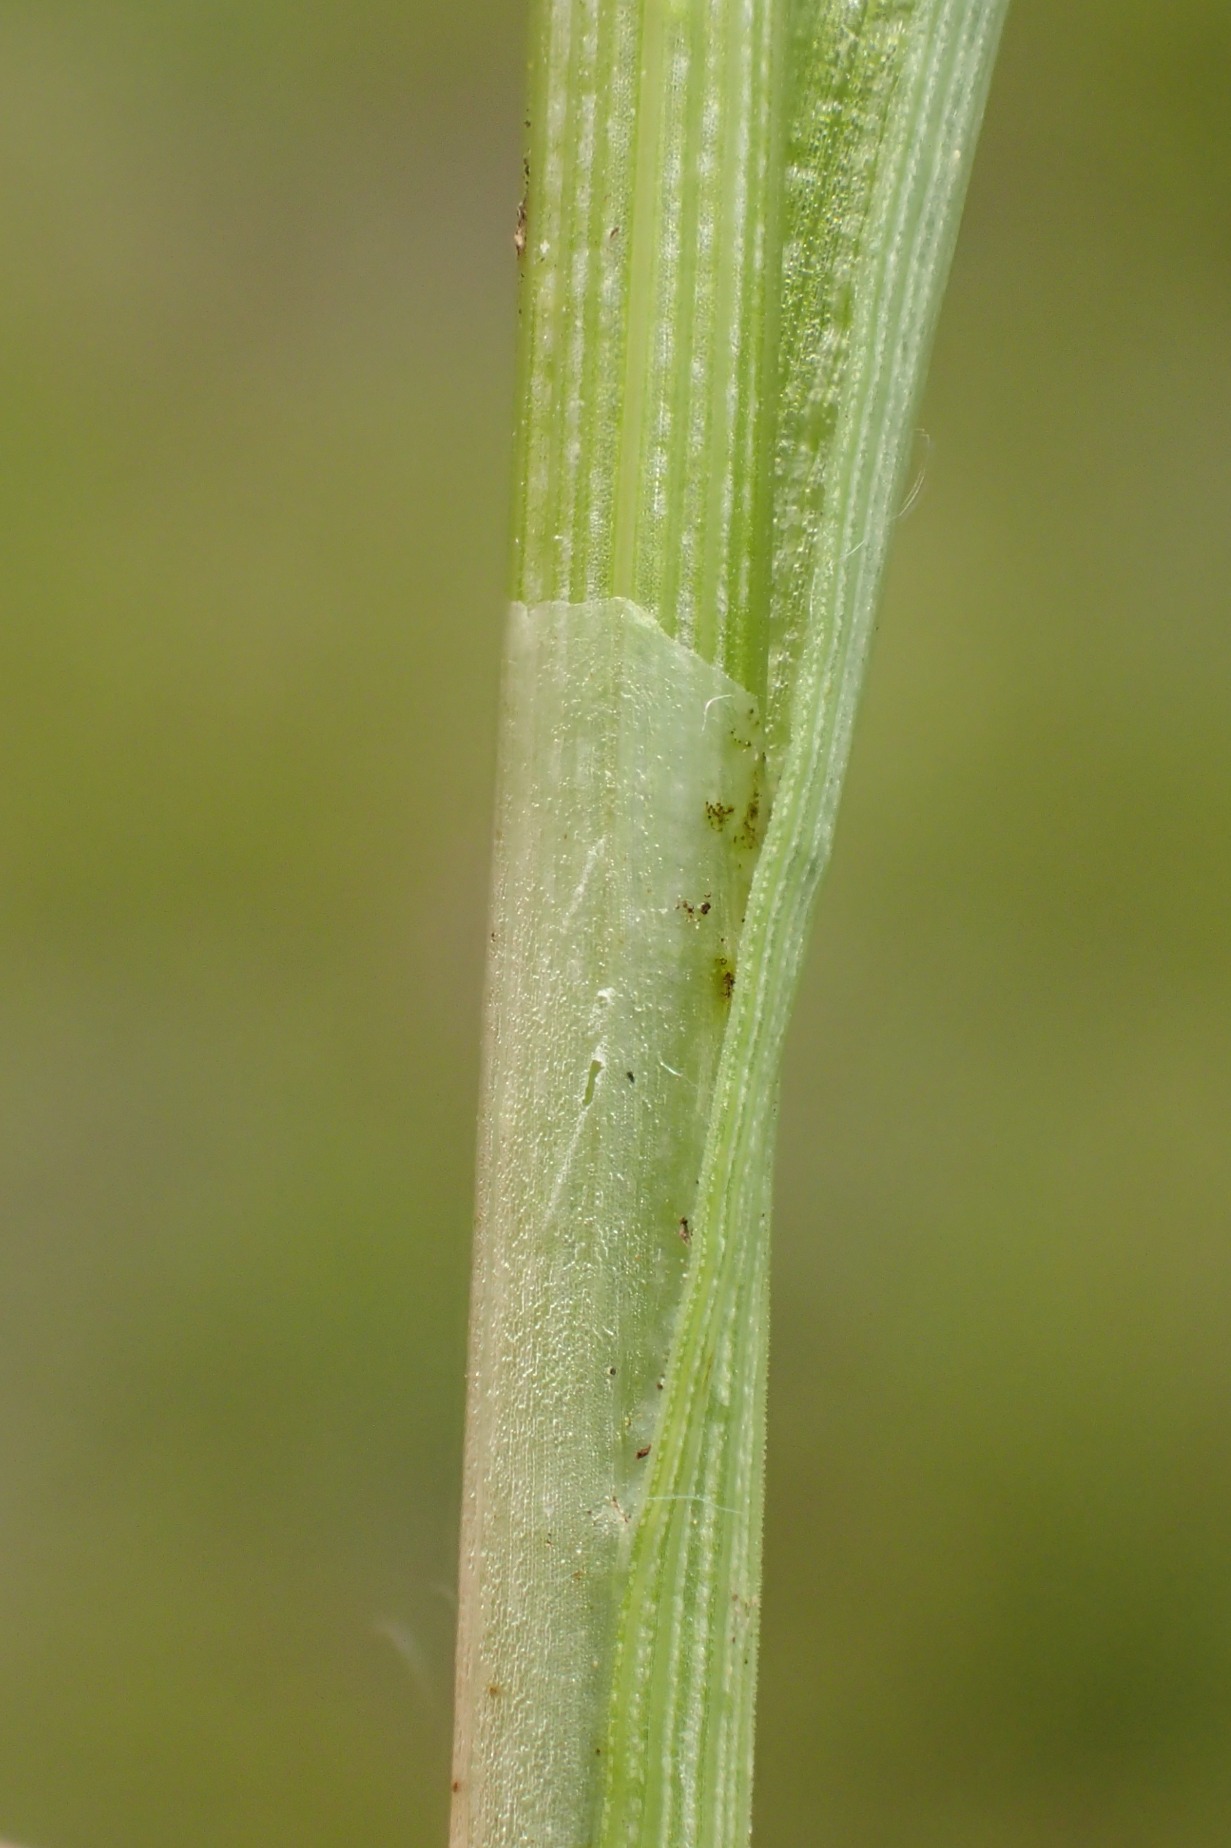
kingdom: Plantae
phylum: Tracheophyta
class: Liliopsida
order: Poales
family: Cyperaceae
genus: Carex
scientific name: Carex diandra
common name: Trindstænglet star
